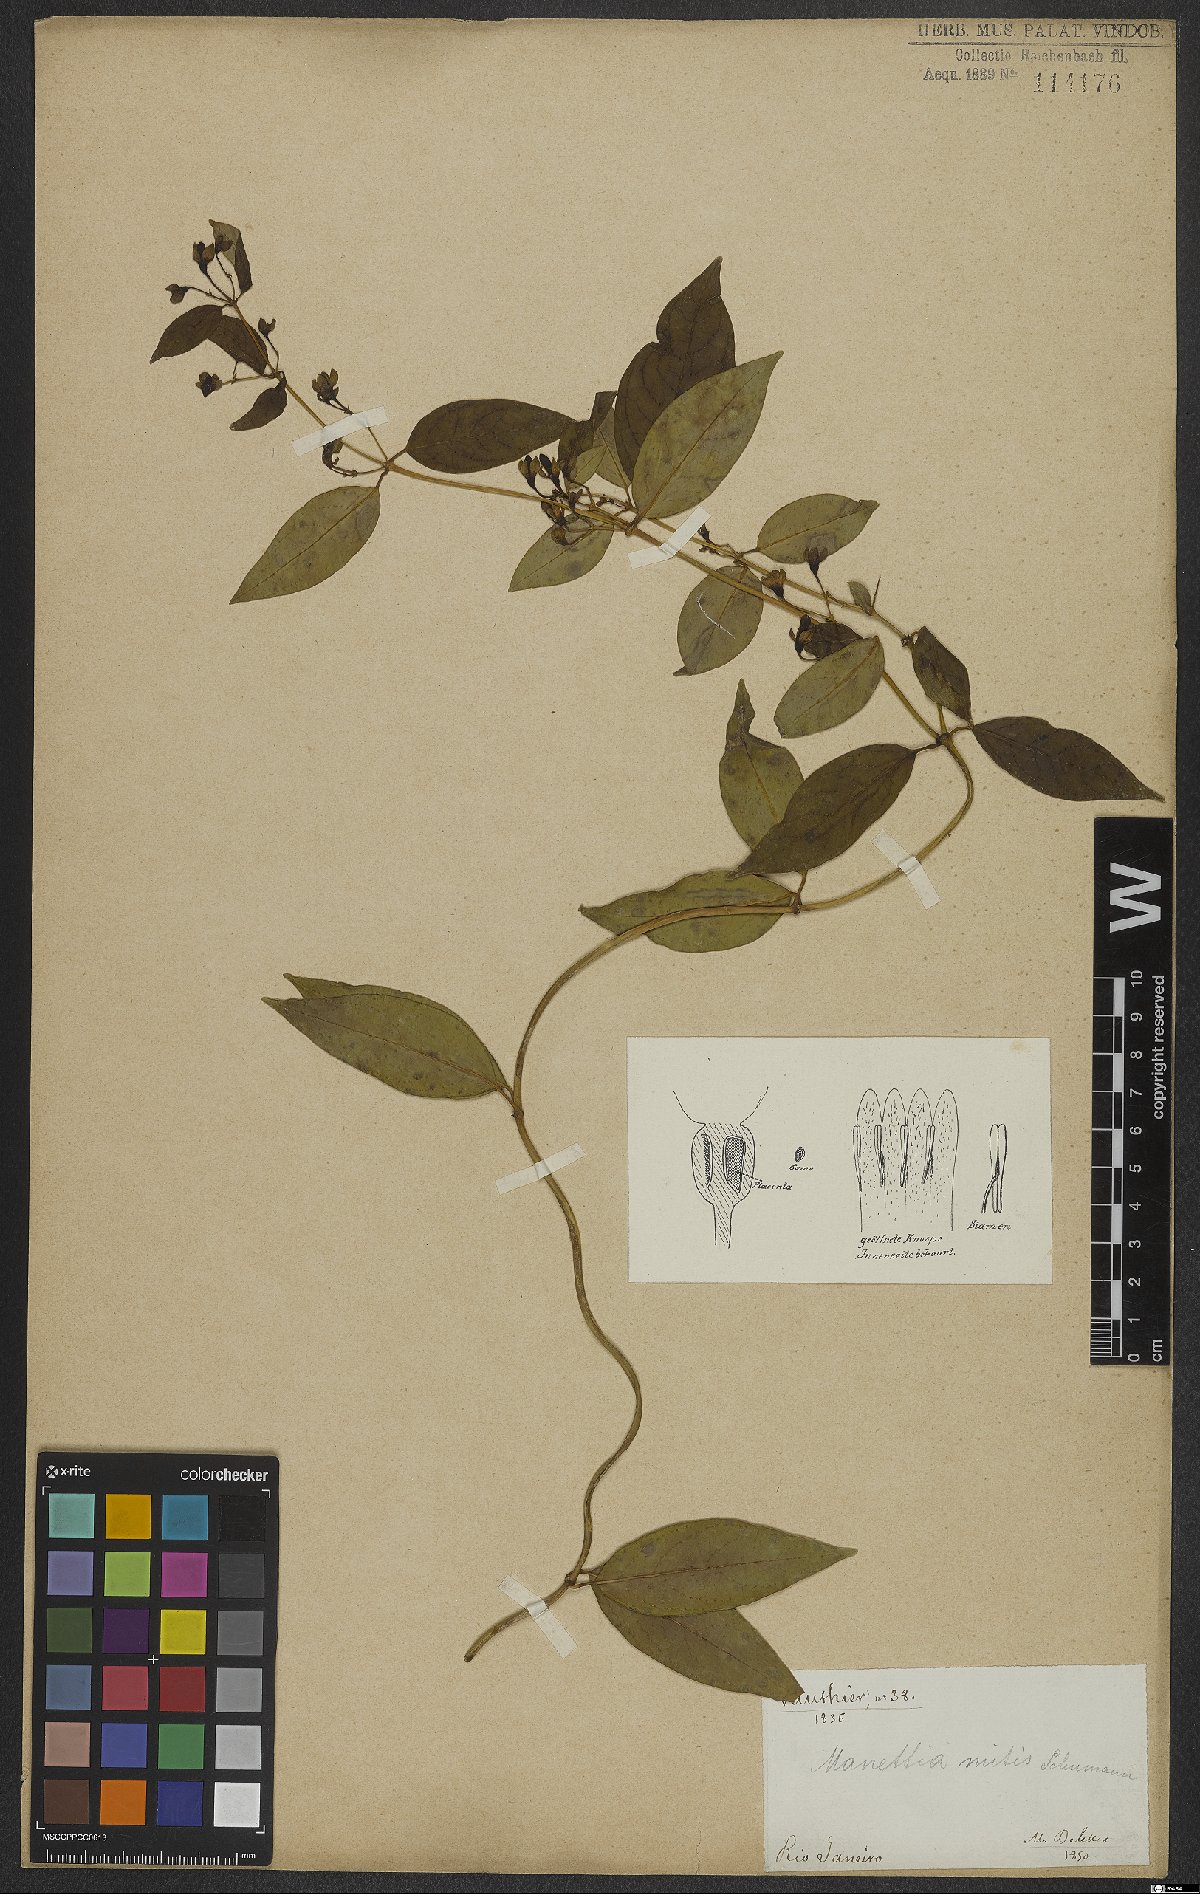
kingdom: Plantae
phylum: Tracheophyta
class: Magnoliopsida
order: Gentianales
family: Rubiaceae
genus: Manettia
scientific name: Manettia mitis
